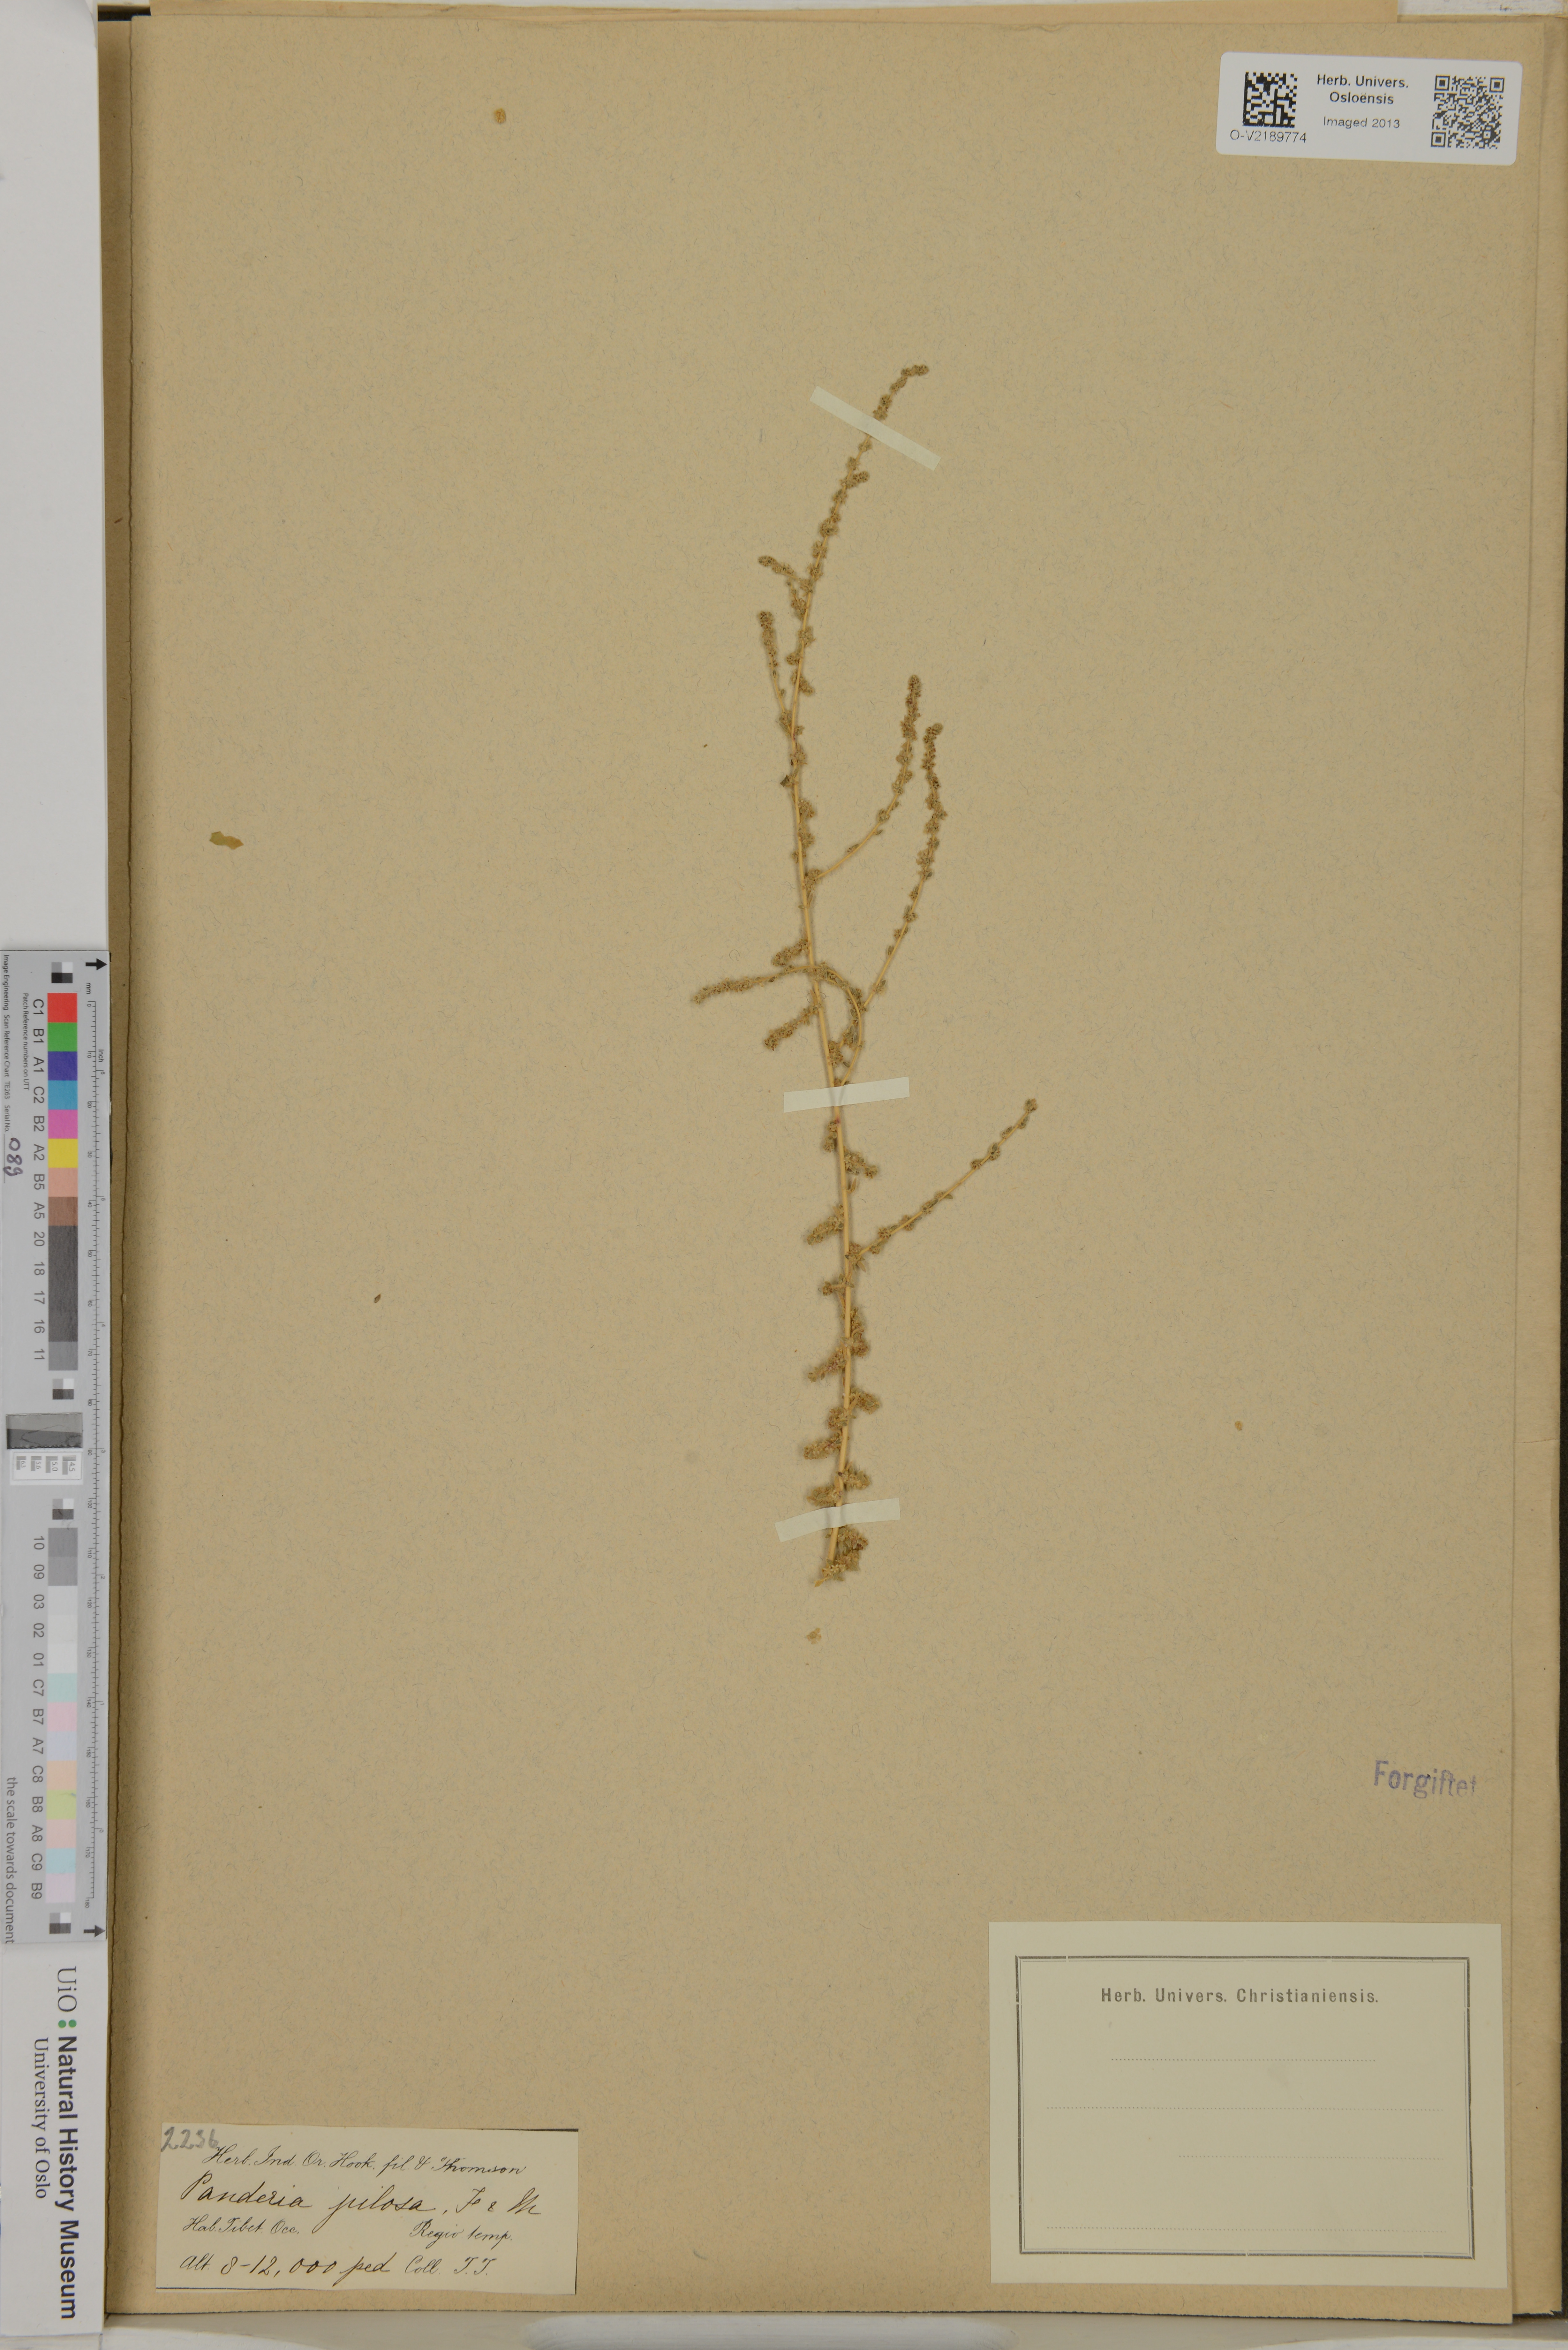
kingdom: Plantae
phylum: Tracheophyta
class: Magnoliopsida
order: Caryophyllales
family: Amaranthaceae
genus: Bassia
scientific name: Bassia stellaris
